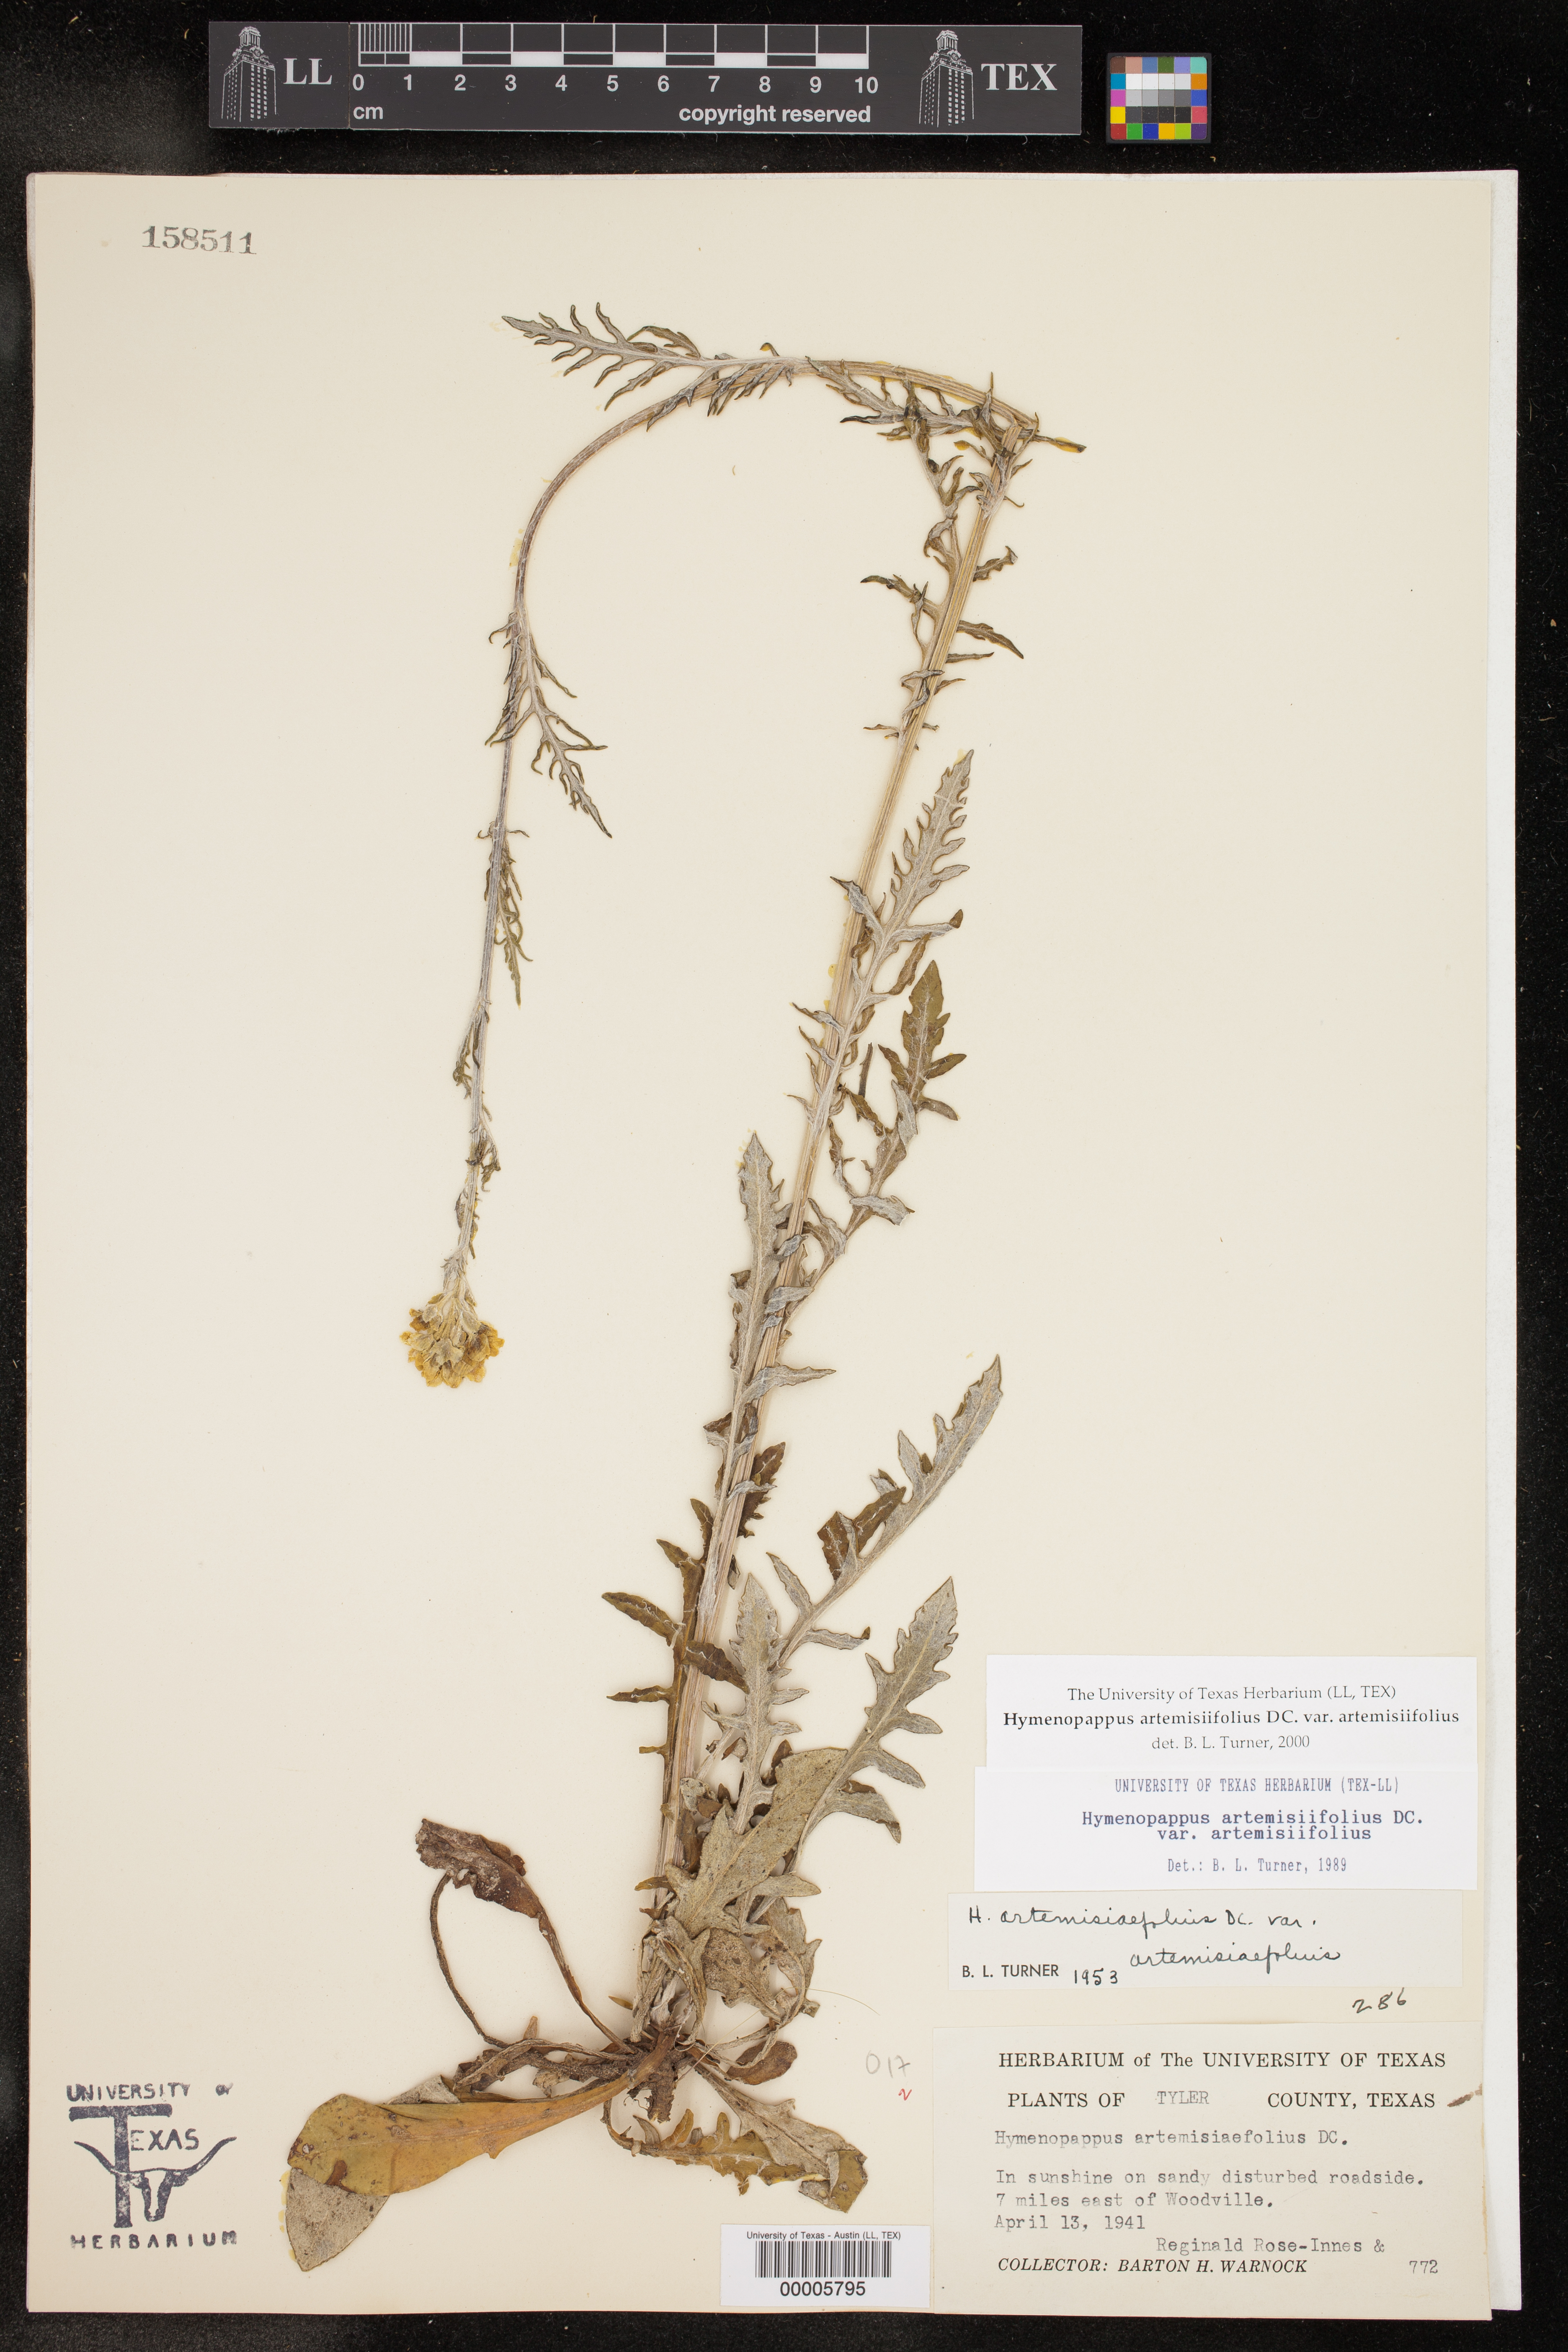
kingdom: Plantae
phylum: Tracheophyta
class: Magnoliopsida
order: Asterales
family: Asteraceae
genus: Hymenopappus
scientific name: Hymenopappus artemisiifolius
